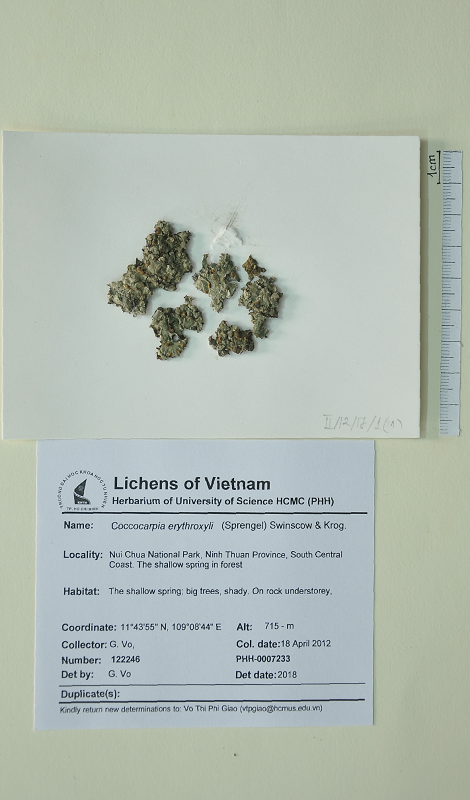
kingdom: Fungi
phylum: Ascomycota
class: Lecanoromycetes
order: Peltigerales
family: Coccocarpiaceae
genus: Coccocarpia
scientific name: Coccocarpia erythroxyli
